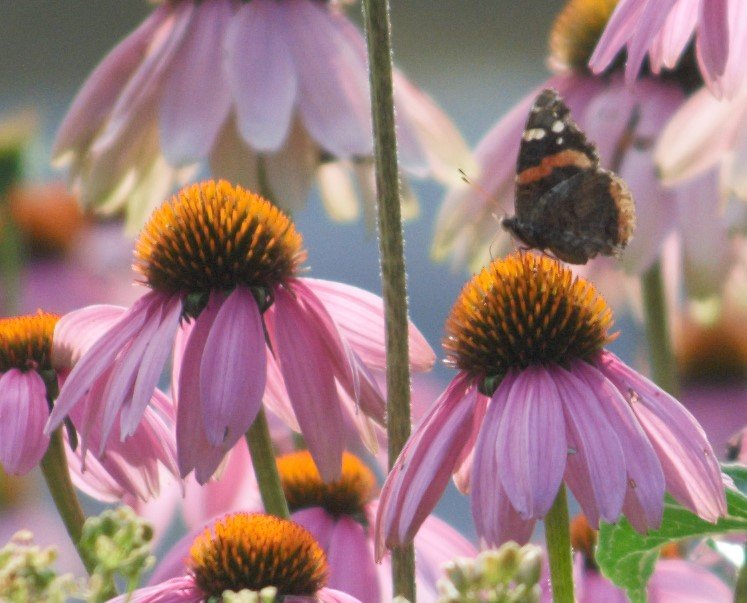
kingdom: Animalia
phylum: Arthropoda
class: Insecta
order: Lepidoptera
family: Nymphalidae
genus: Vanessa
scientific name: Vanessa atalanta
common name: Red Admiral
